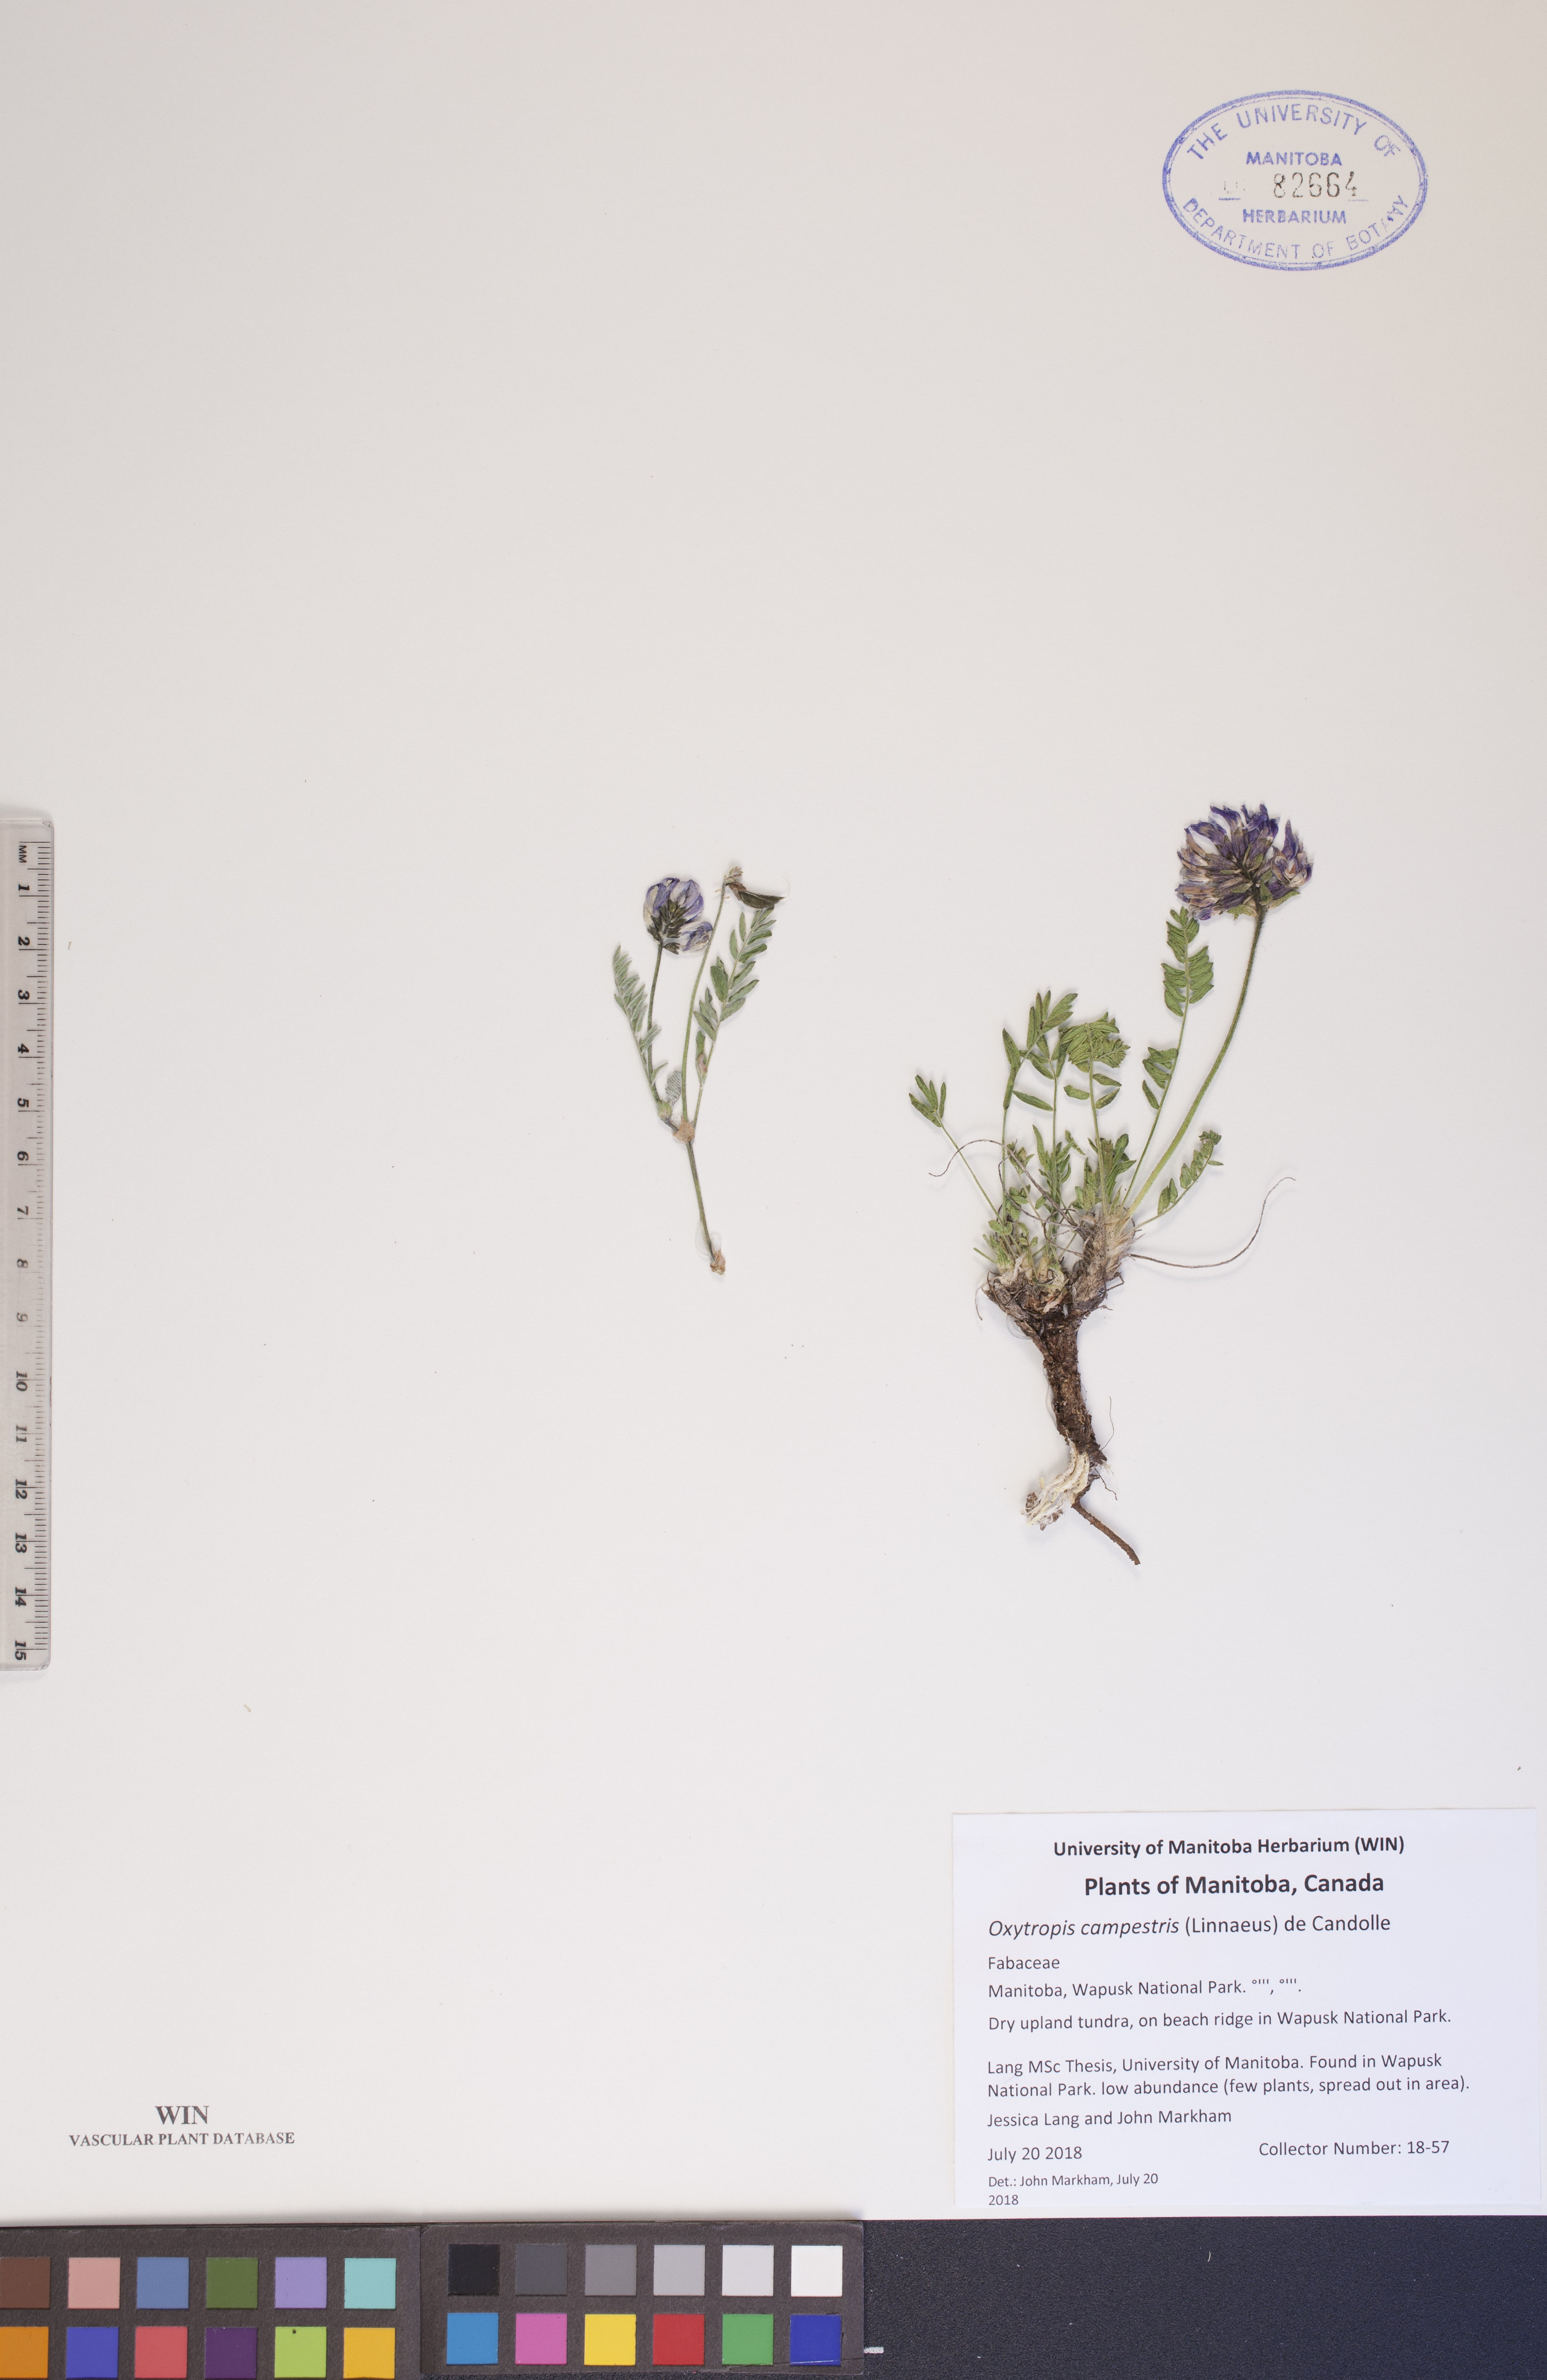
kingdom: Plantae
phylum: Tracheophyta
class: Magnoliopsida
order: Fabales
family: Fabaceae
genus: Oxytropis
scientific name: Oxytropis campestris
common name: Field locoweed
